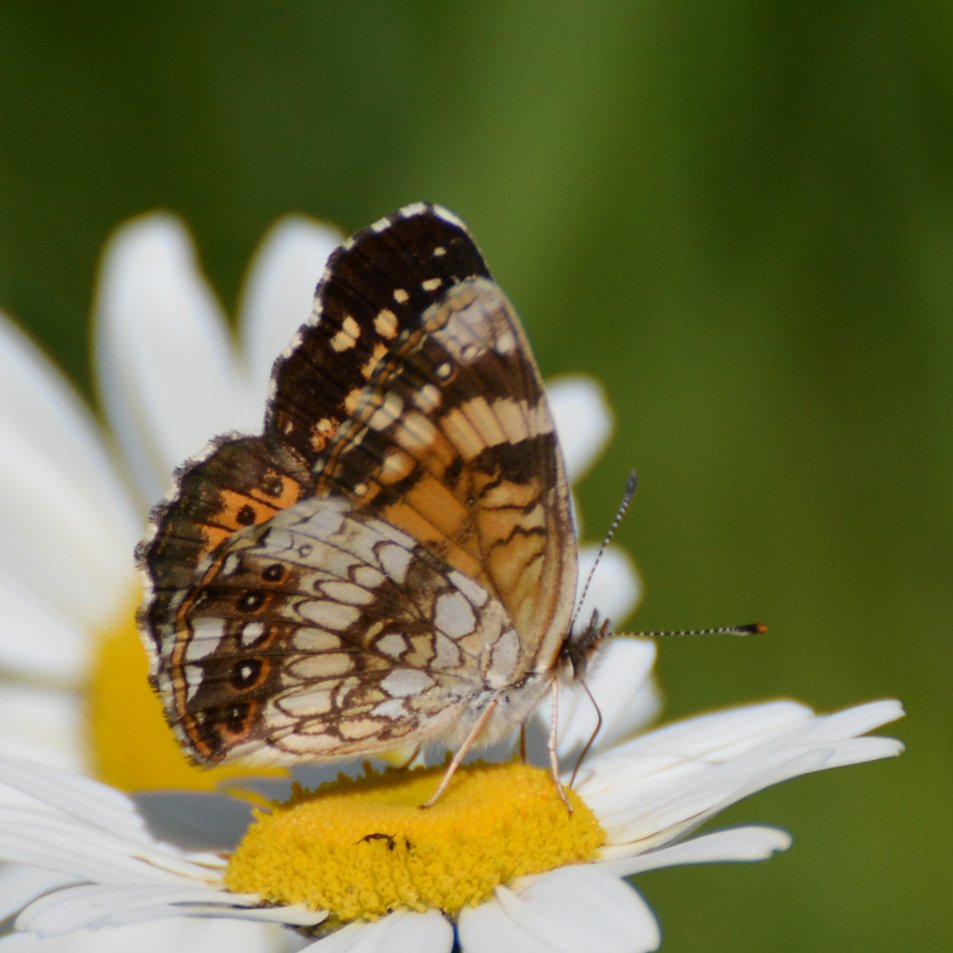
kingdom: Animalia
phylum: Arthropoda
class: Insecta
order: Lepidoptera
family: Nymphalidae
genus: Chlosyne
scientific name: Chlosyne nycteis
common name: Silvery Checkerspot
